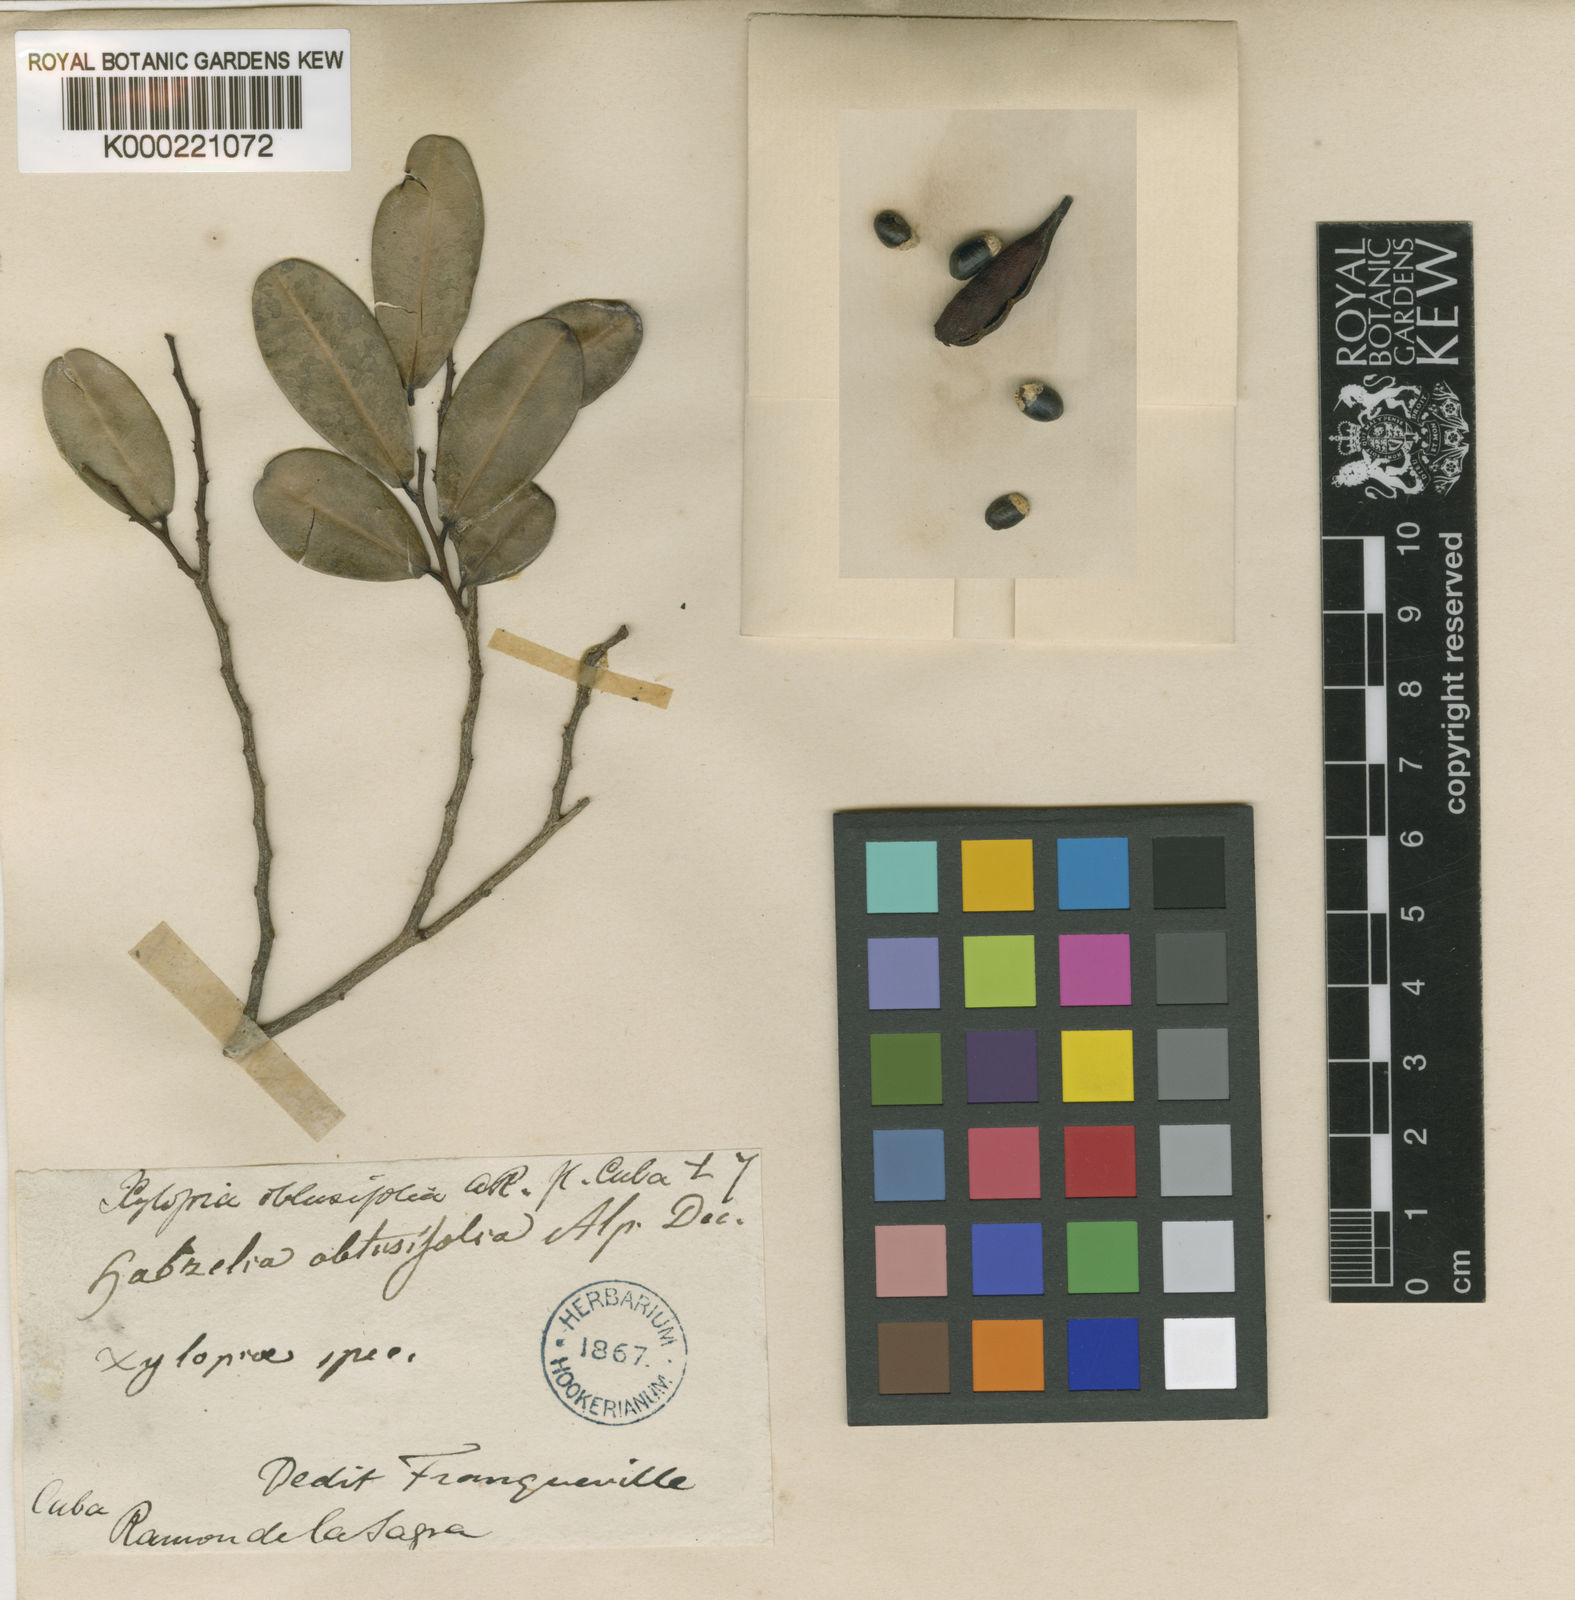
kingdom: Plantae
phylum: Tracheophyta
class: Magnoliopsida
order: Magnoliales
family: Annonaceae
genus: Xylopia
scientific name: Xylopia fusca
